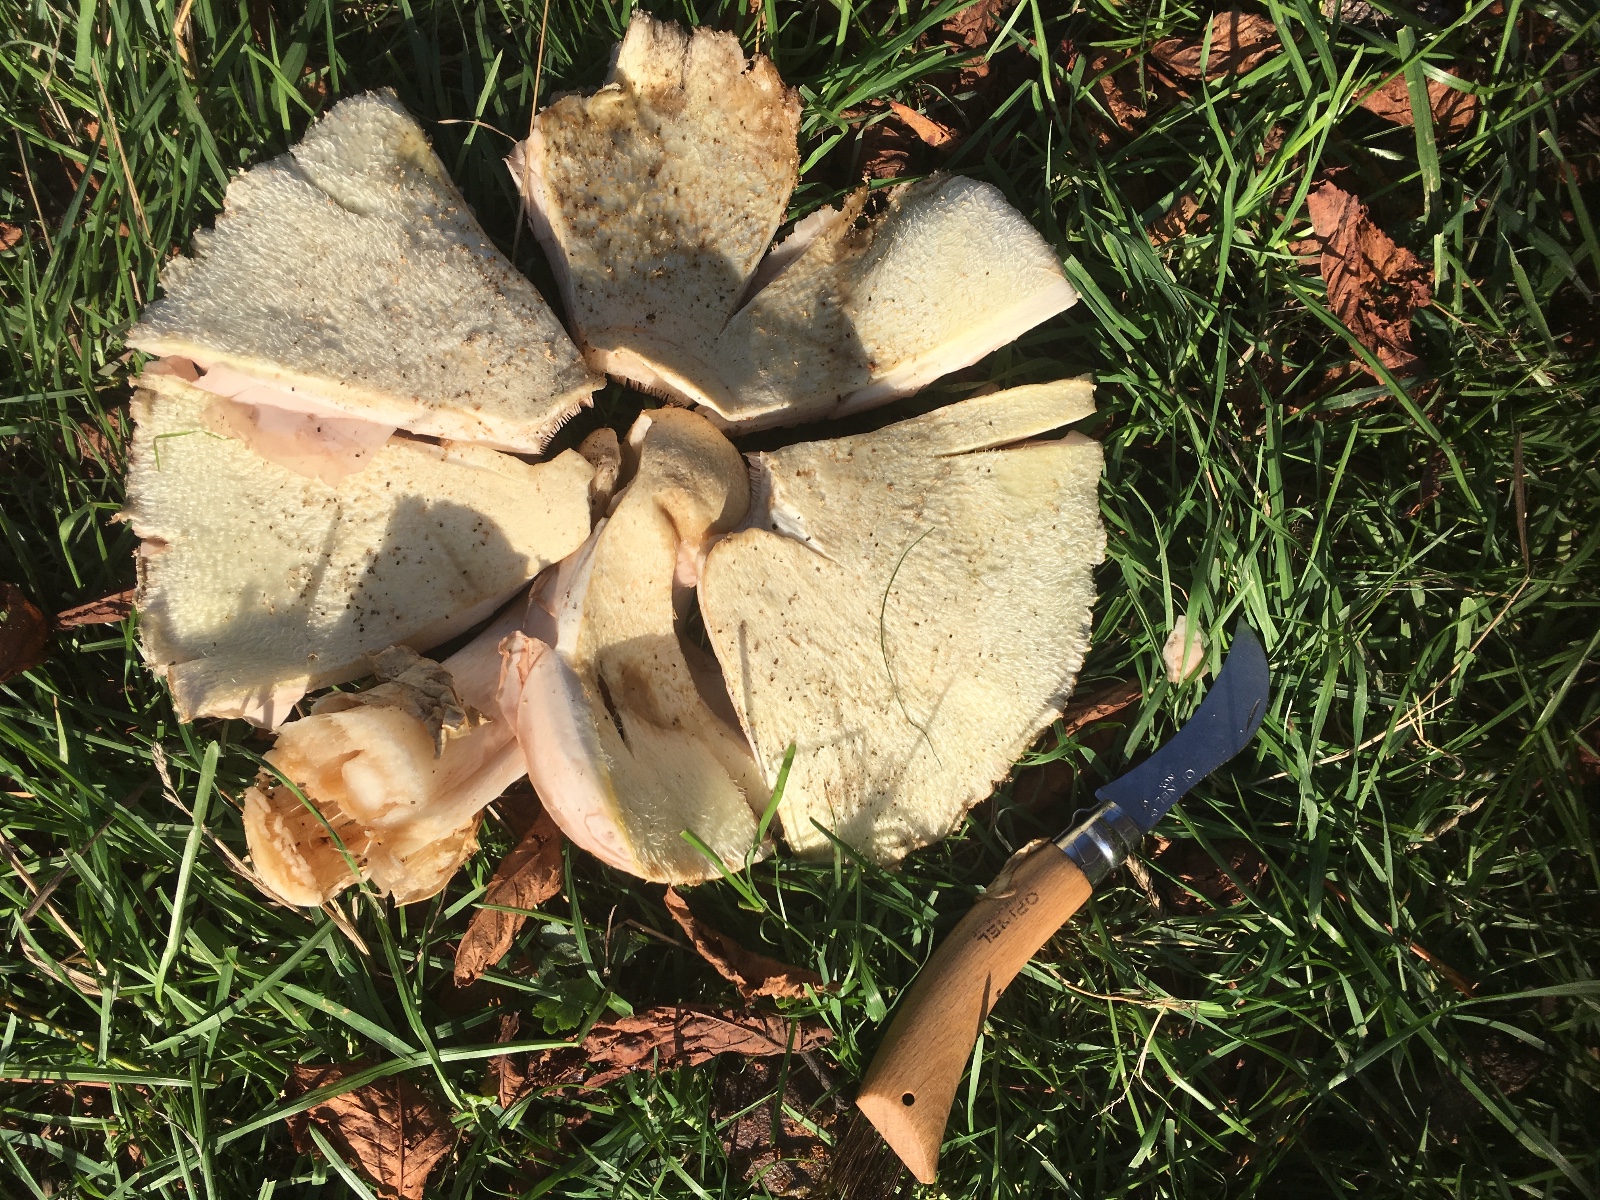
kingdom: Fungi
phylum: Basidiomycota
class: Agaricomycetes
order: Agaricales
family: Pluteaceae
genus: Volvariella
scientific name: Volvariella bombycina
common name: silkehåret posesvamp
